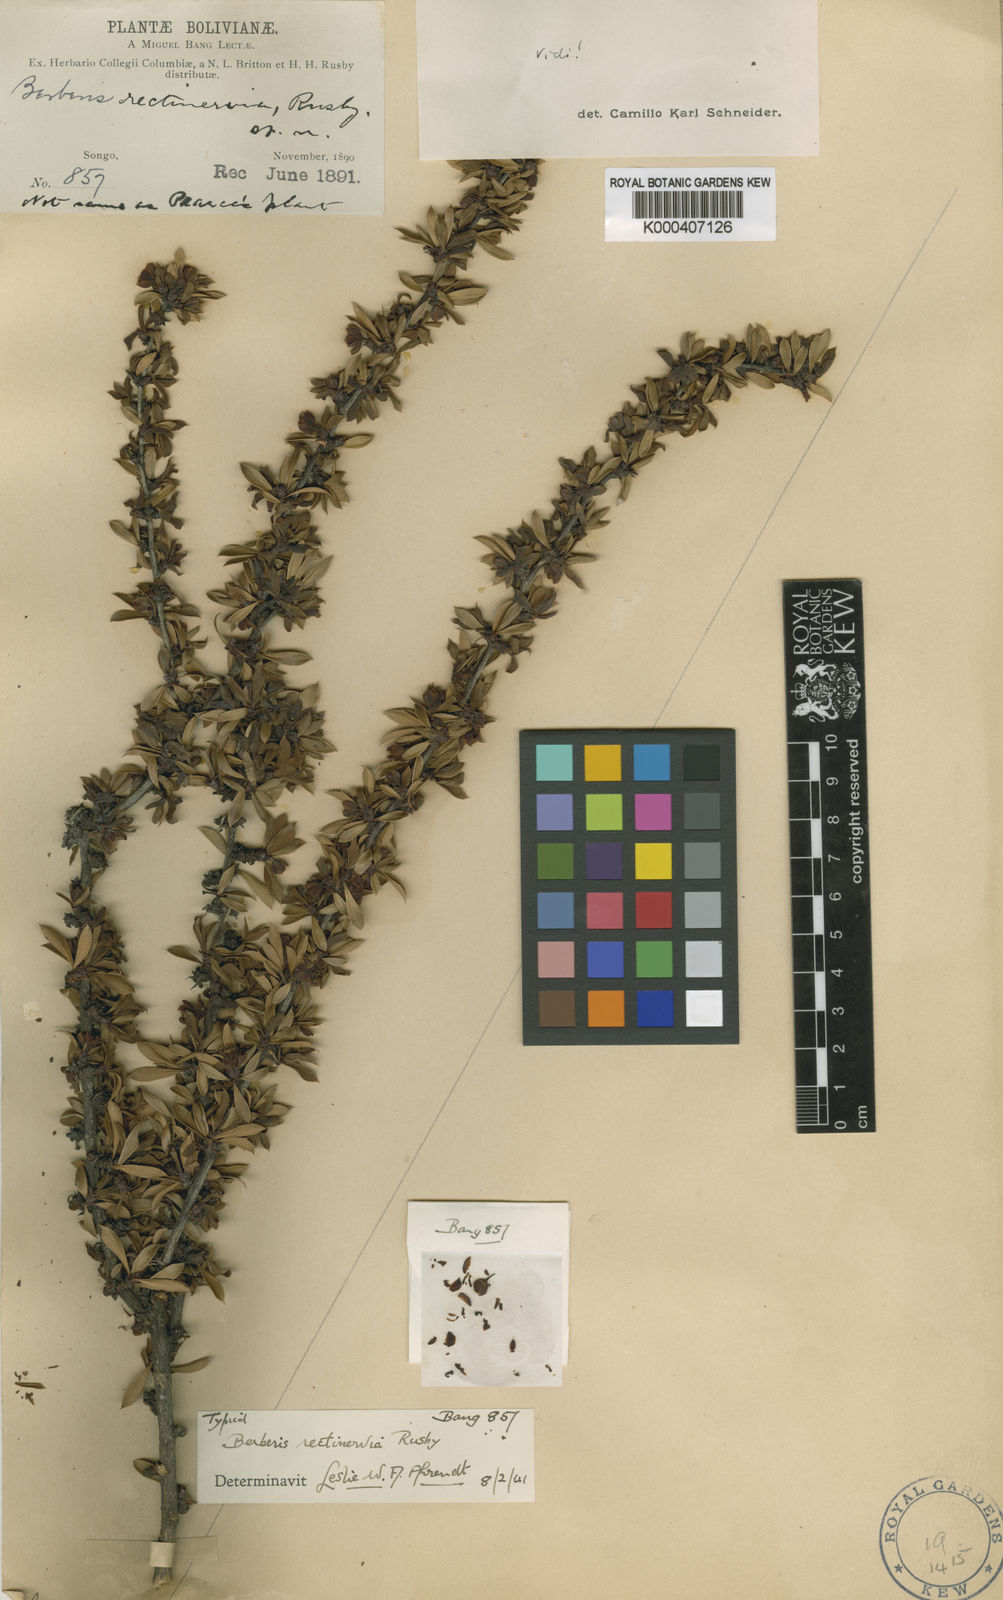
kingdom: Plantae
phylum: Tracheophyta
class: Magnoliopsida
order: Ranunculales
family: Berberidaceae
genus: Berberis
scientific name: Berberis rariflora
